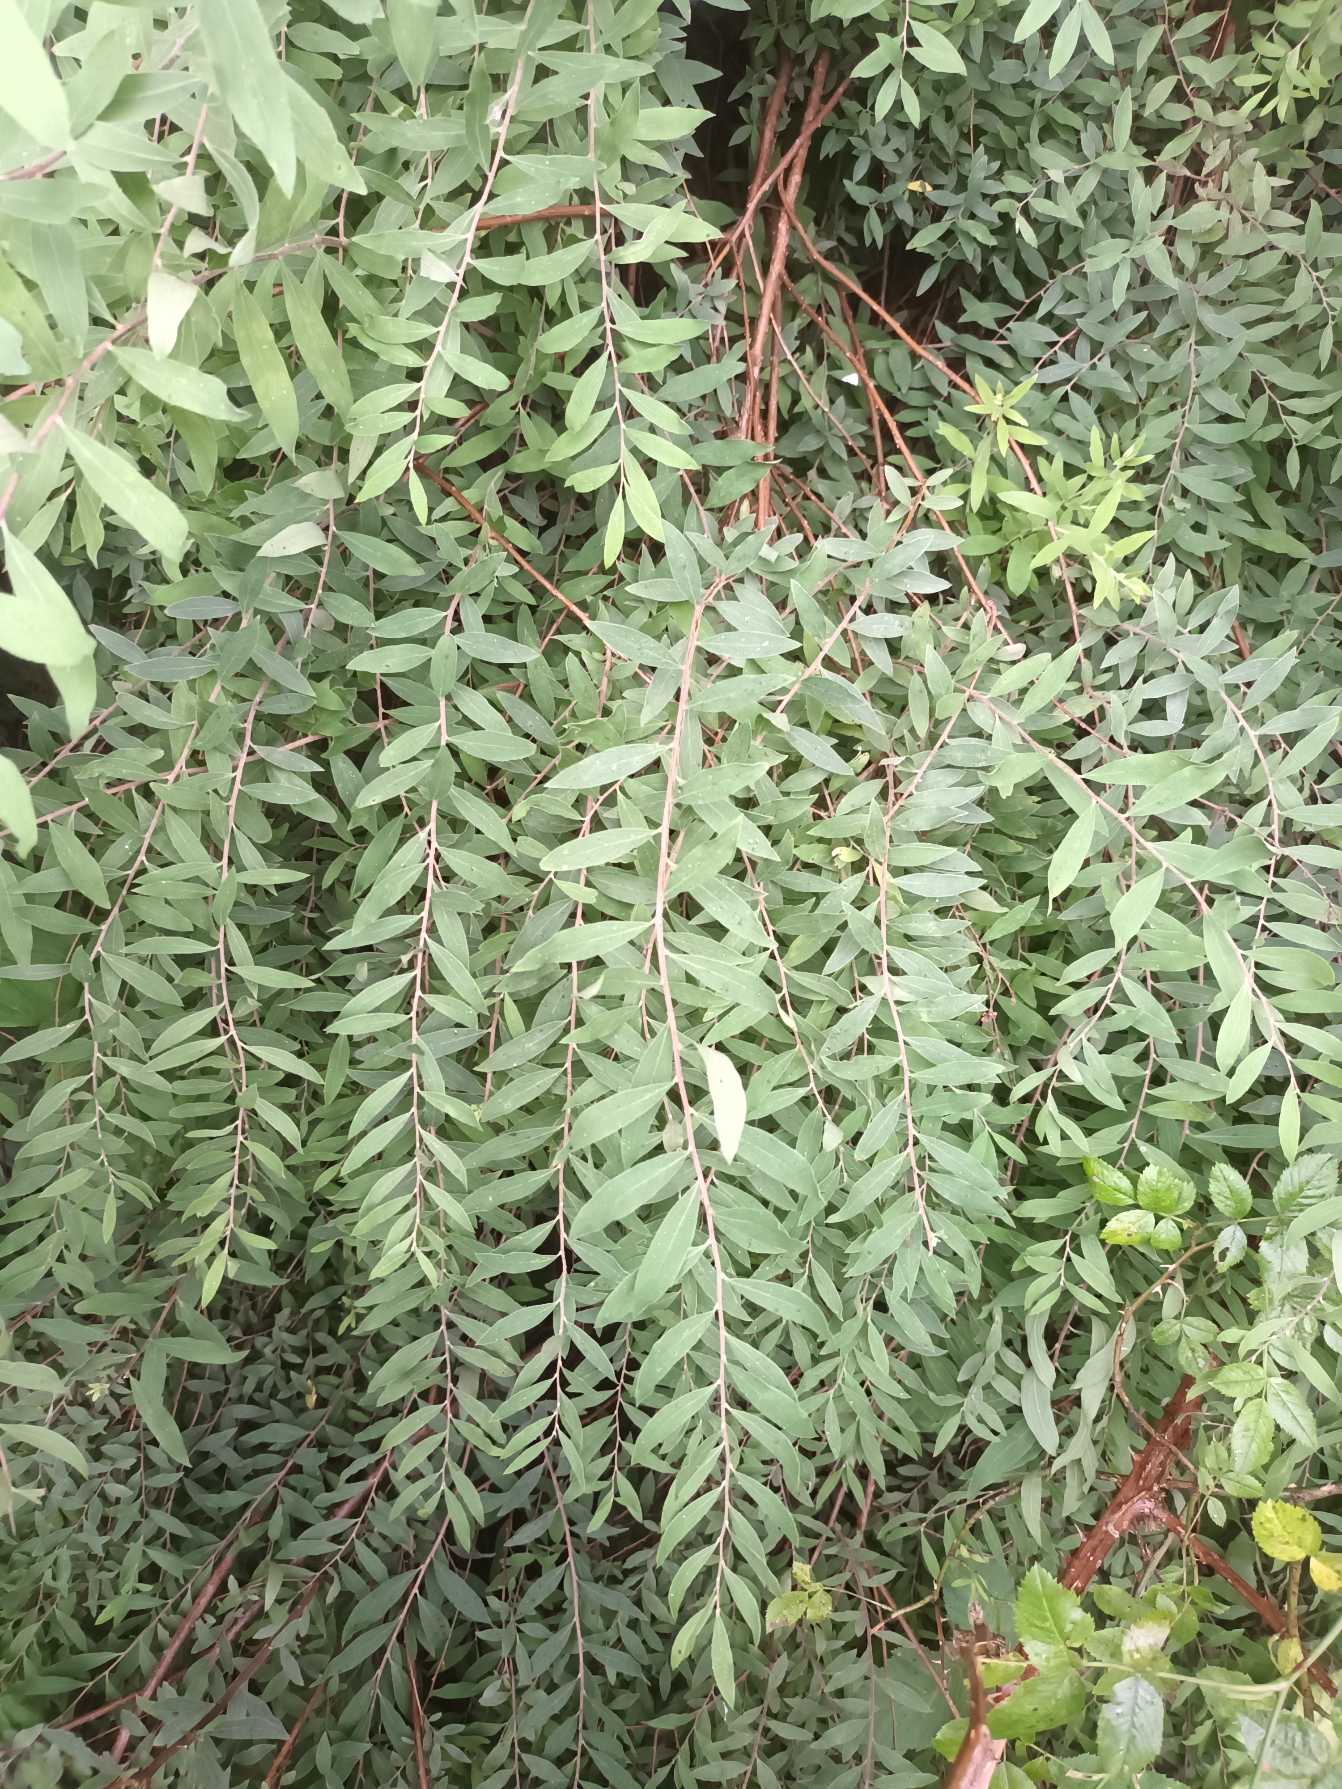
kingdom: Plantae
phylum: Tracheophyta
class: Magnoliopsida
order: Rosales
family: Rosaceae
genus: Spiraea
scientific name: Spiraea cinerea
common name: Grå spiræa
